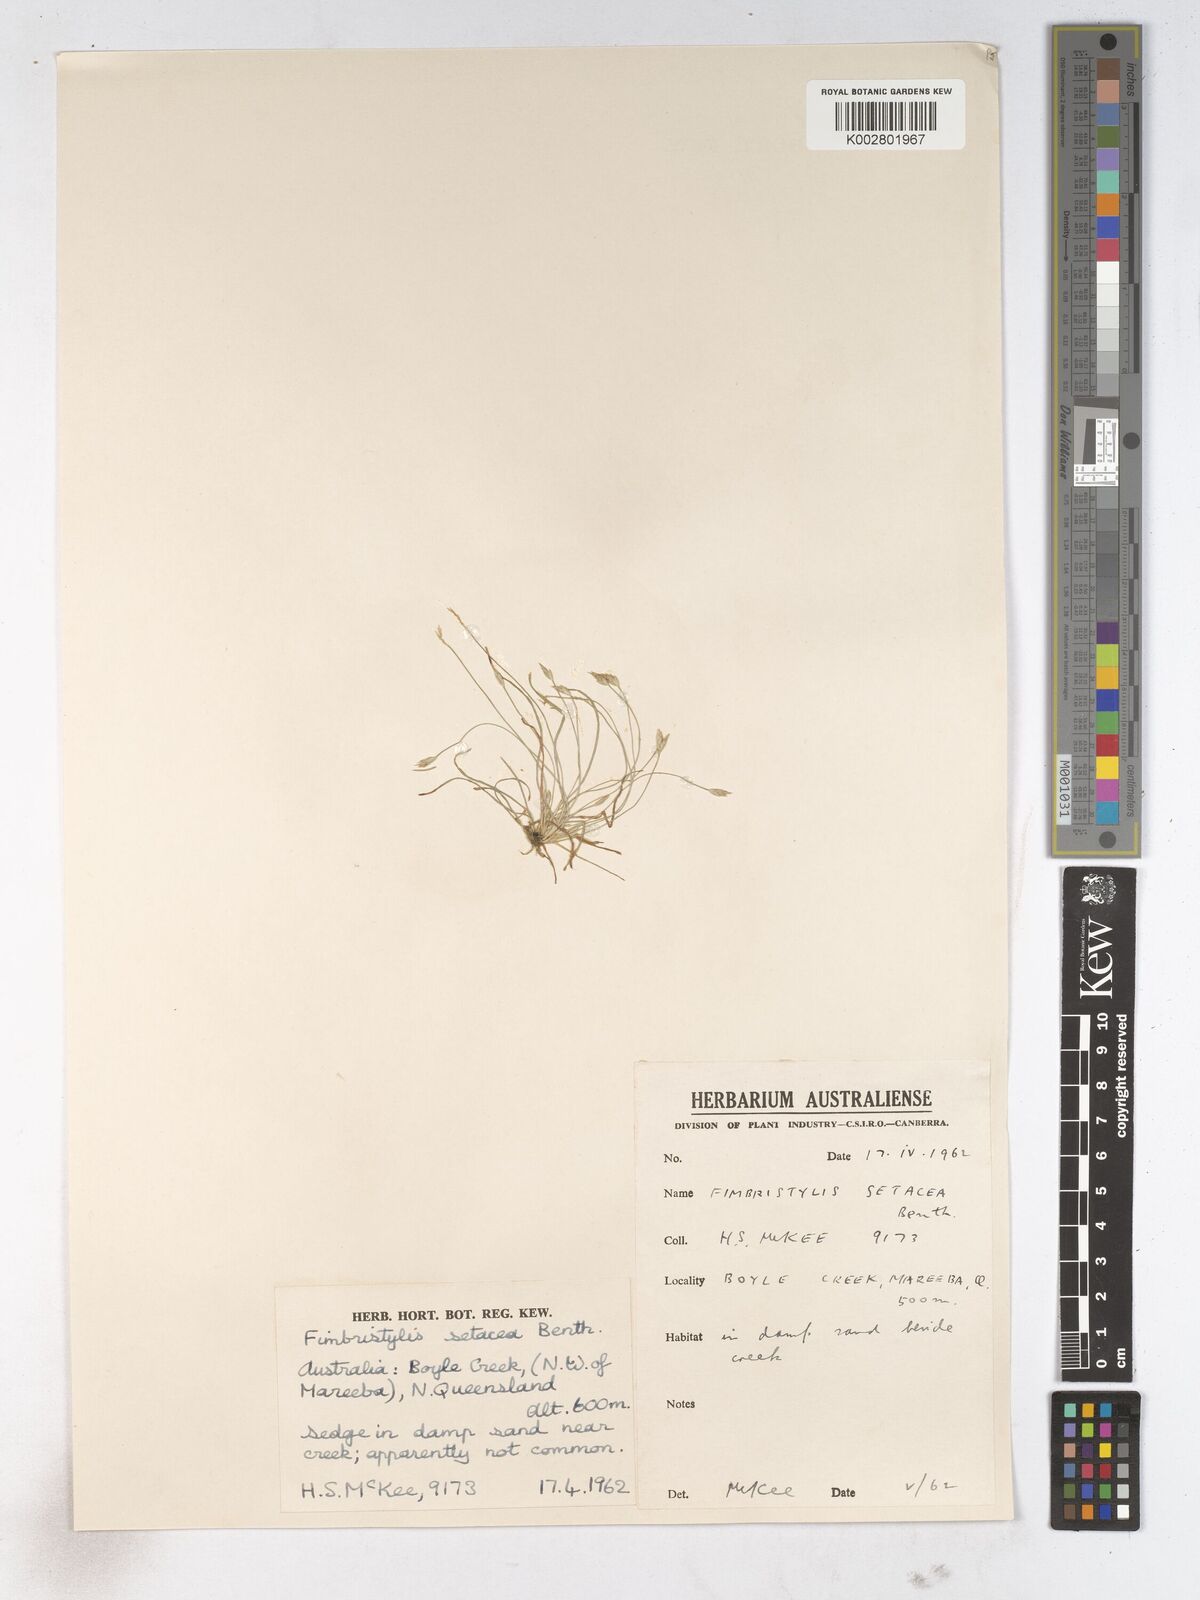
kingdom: Plantae
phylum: Tracheophyta
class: Liliopsida
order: Poales
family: Cyperaceae
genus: Fimbristylis
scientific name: Fimbristylis acicularis
